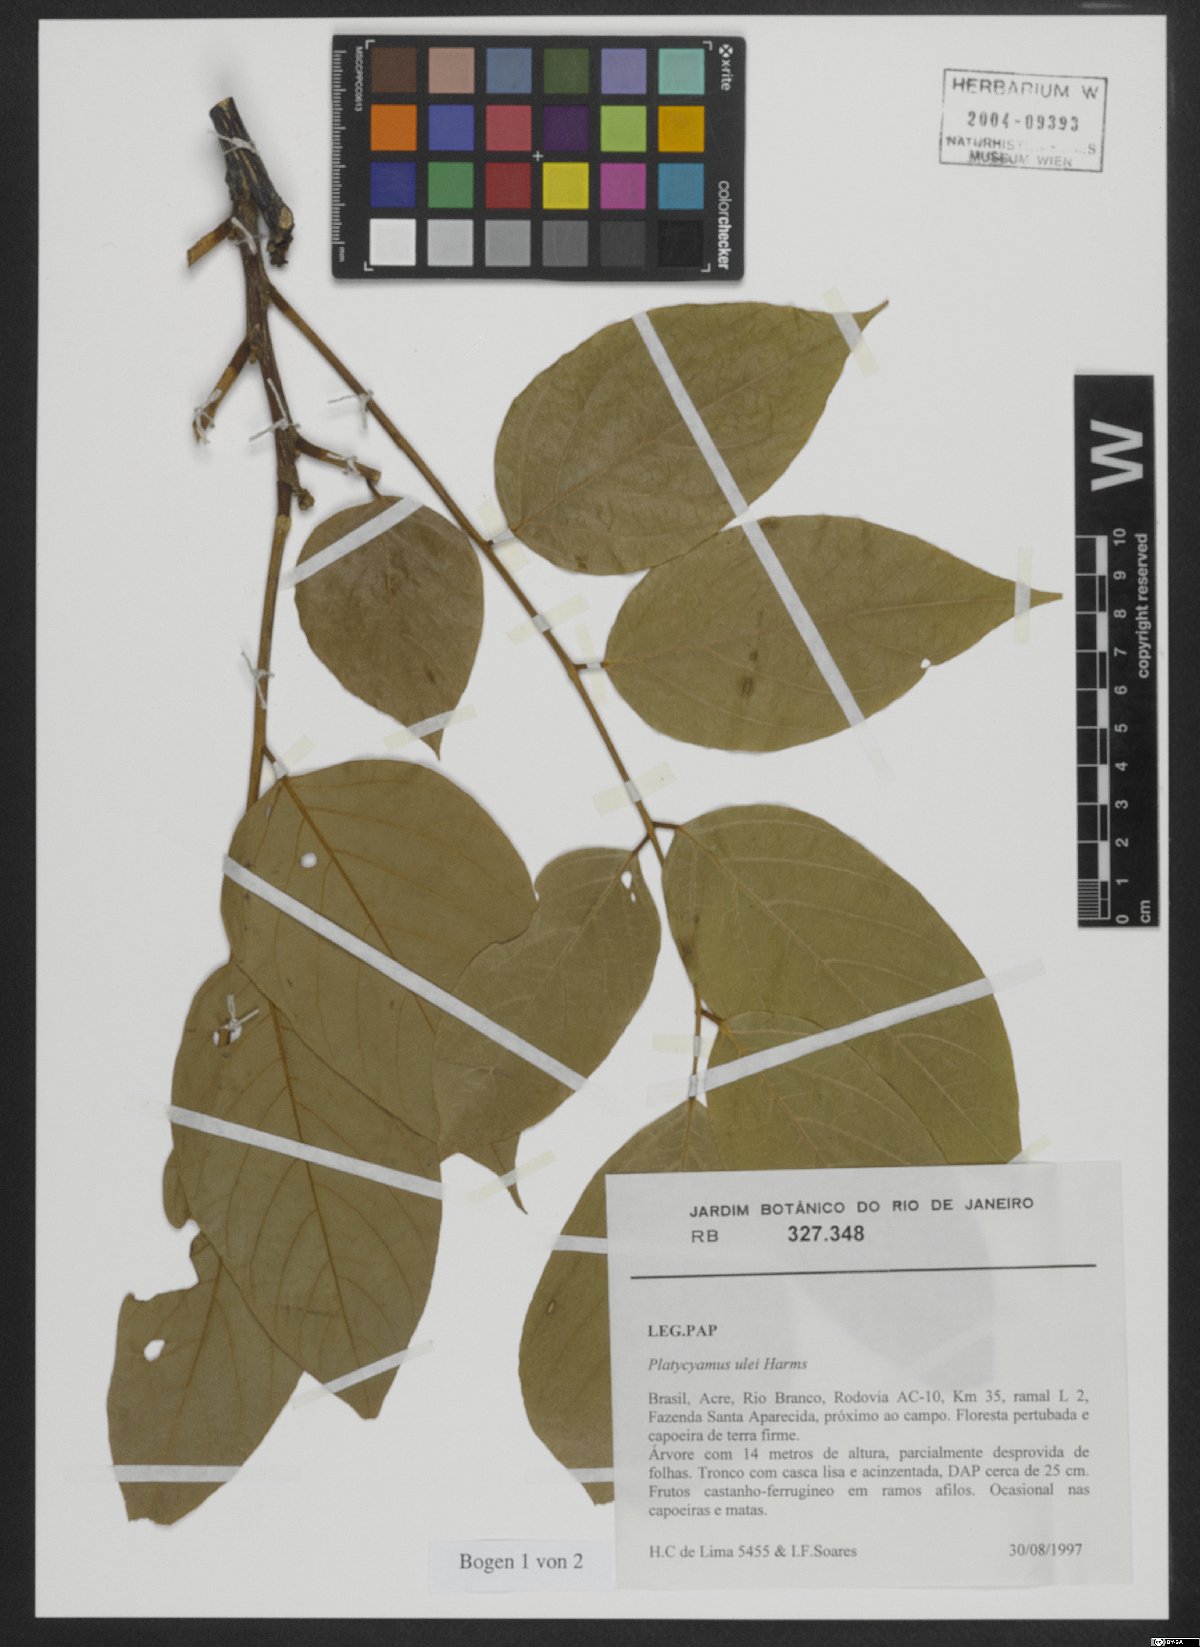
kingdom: Plantae
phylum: Tracheophyta
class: Magnoliopsida
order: Fabales
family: Fabaceae
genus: Platycyamus
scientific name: Platycyamus ulei
